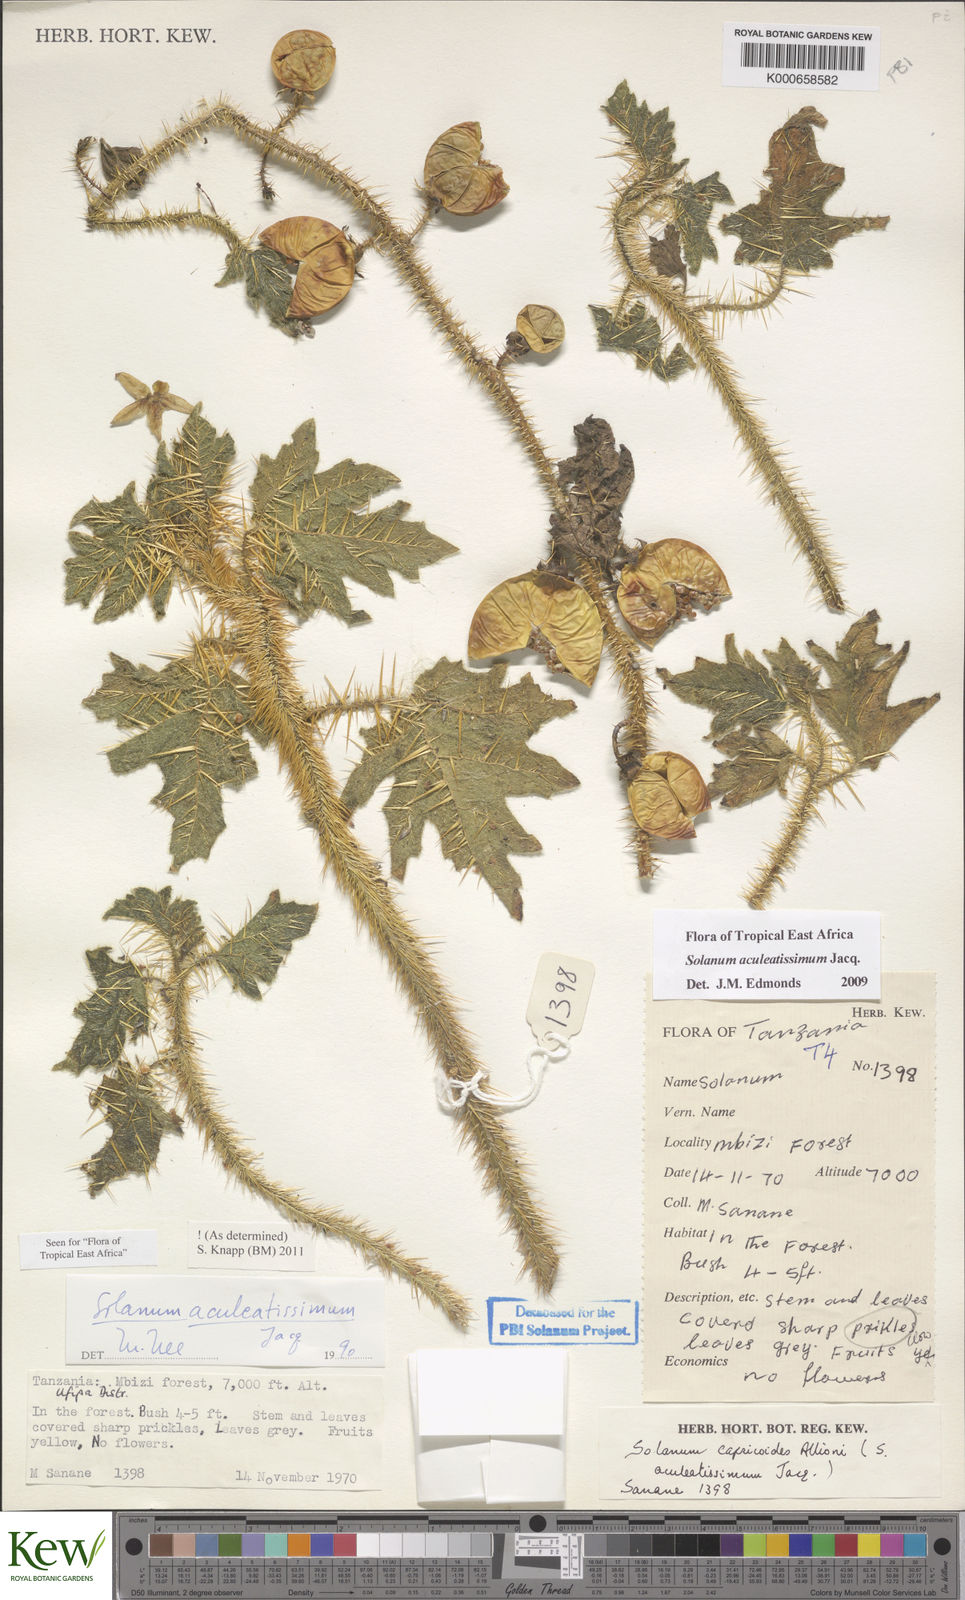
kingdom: Plantae
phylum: Tracheophyta
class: Magnoliopsida
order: Solanales
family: Solanaceae
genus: Solanum
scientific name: Solanum aculeatissimum
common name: Dutch eggplant
